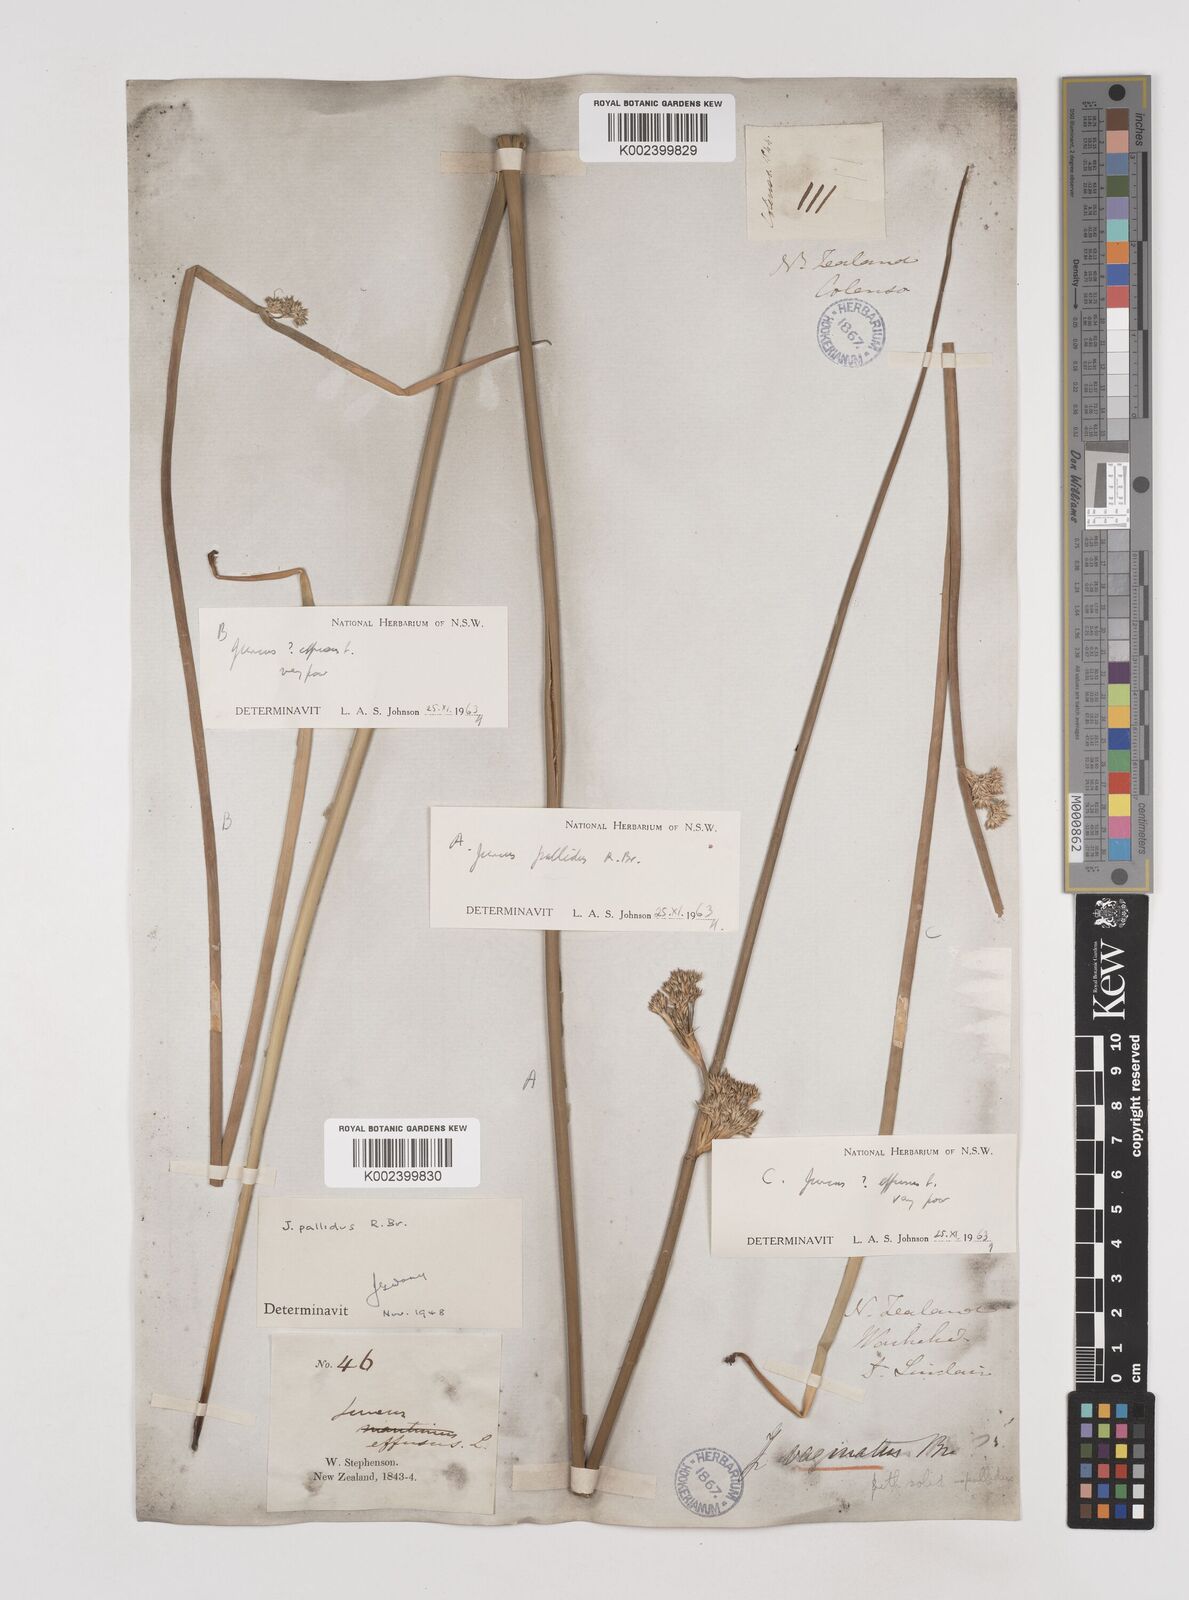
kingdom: Plantae
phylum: Tracheophyta
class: Liliopsida
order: Poales
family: Juncaceae
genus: Juncus
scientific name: Juncus pallidus
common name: Great soft-rush
